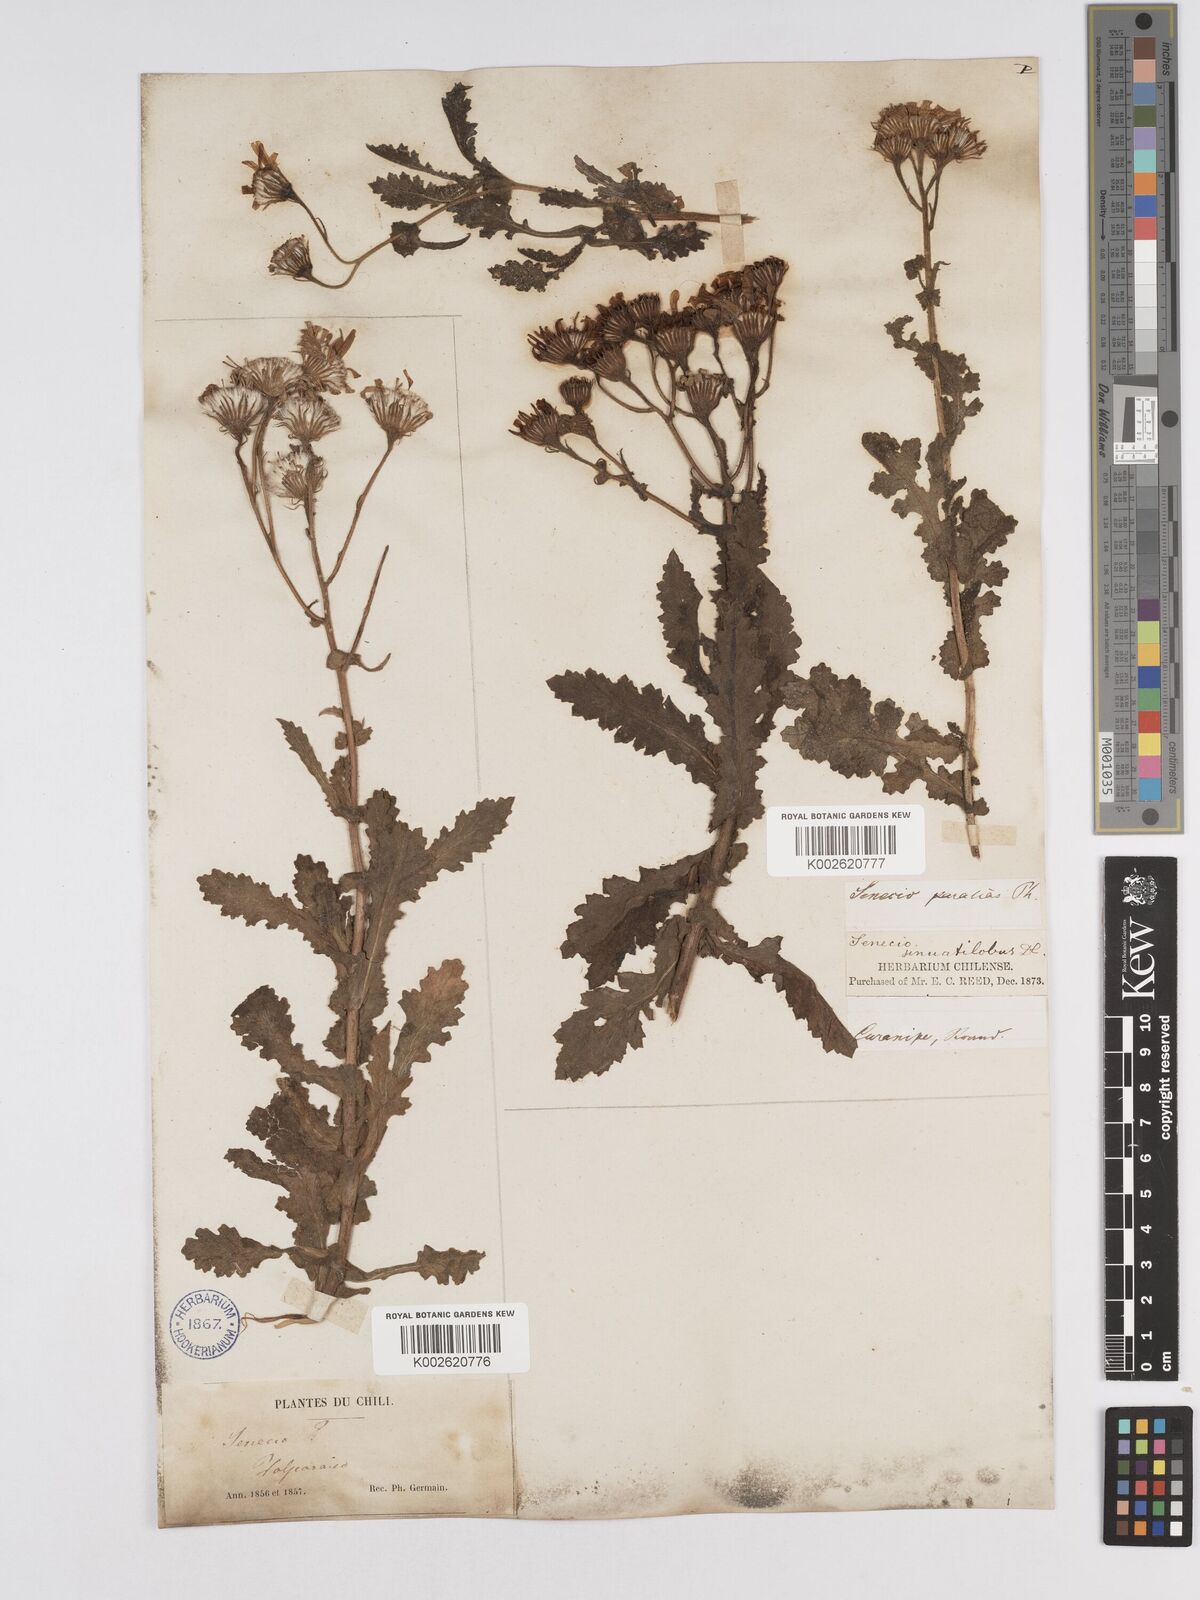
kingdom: Plantae
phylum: Tracheophyta
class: Magnoliopsida
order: Asterales
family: Asteraceae
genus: Senecio
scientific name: Senecio sinuatilobus
